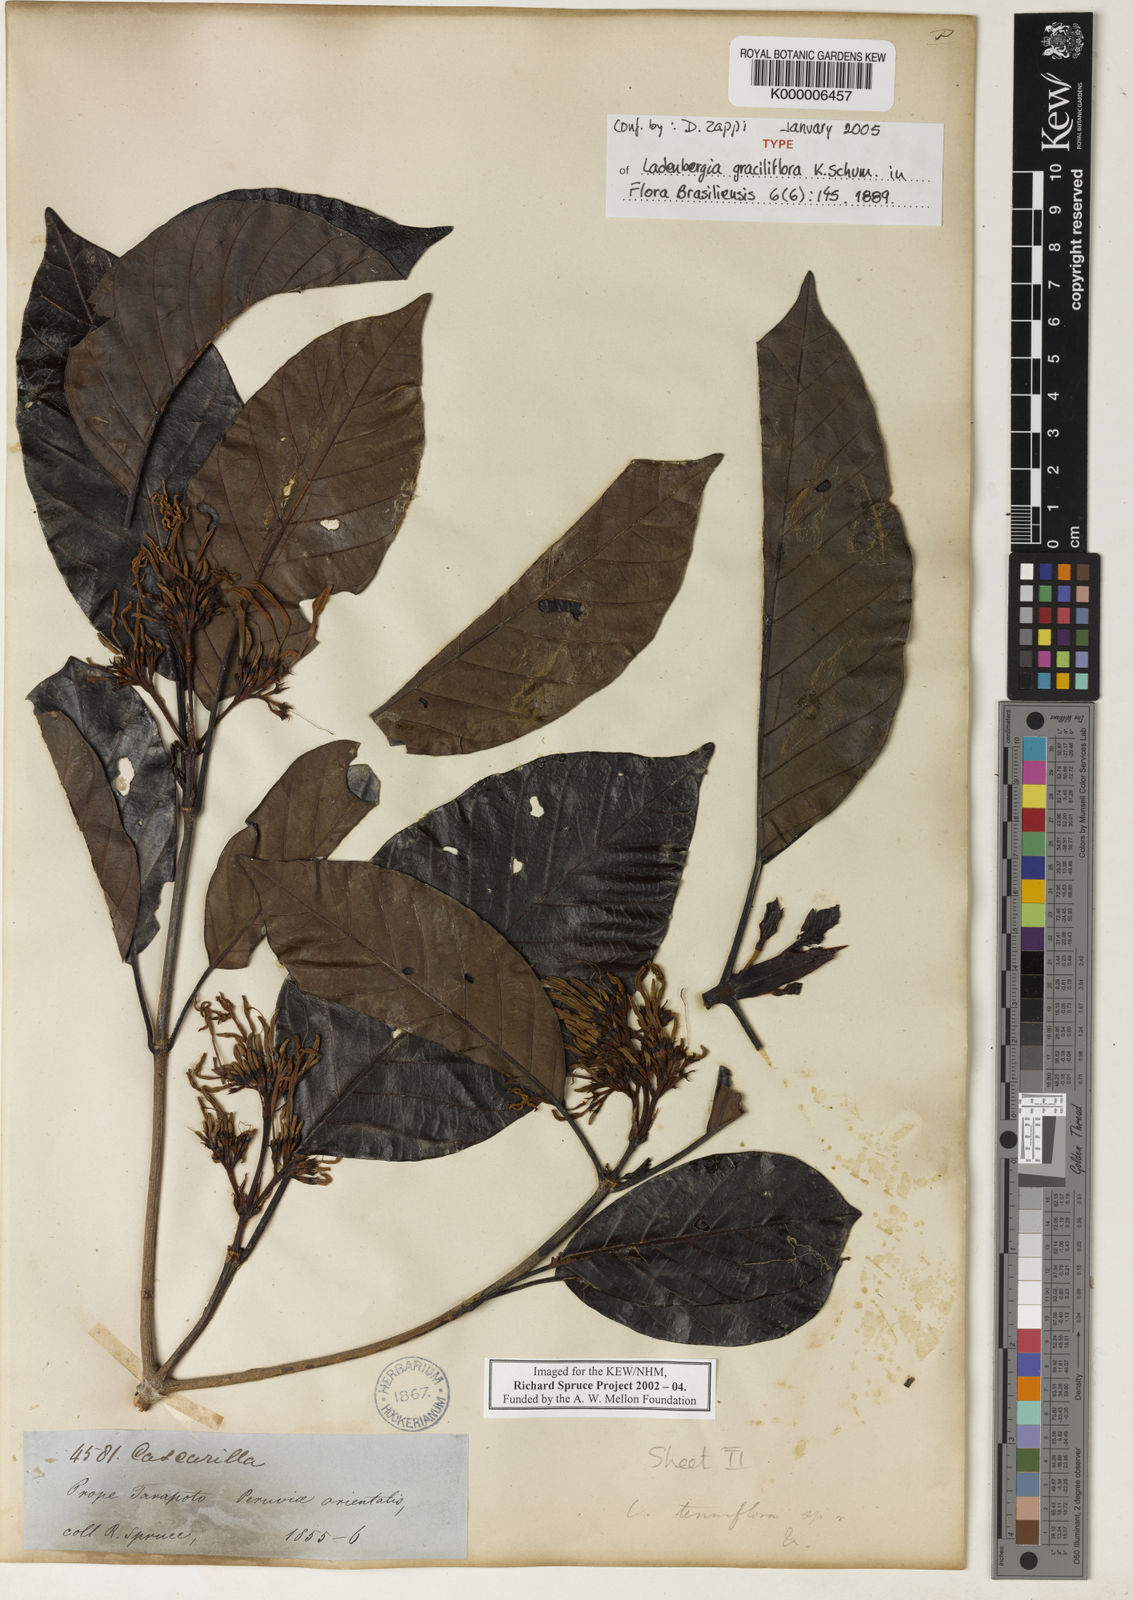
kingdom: Plantae
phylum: Tracheophyta
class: Magnoliopsida
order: Gentianales
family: Rubiaceae
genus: Ladenbergia
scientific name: Ladenbergia graciliflora
